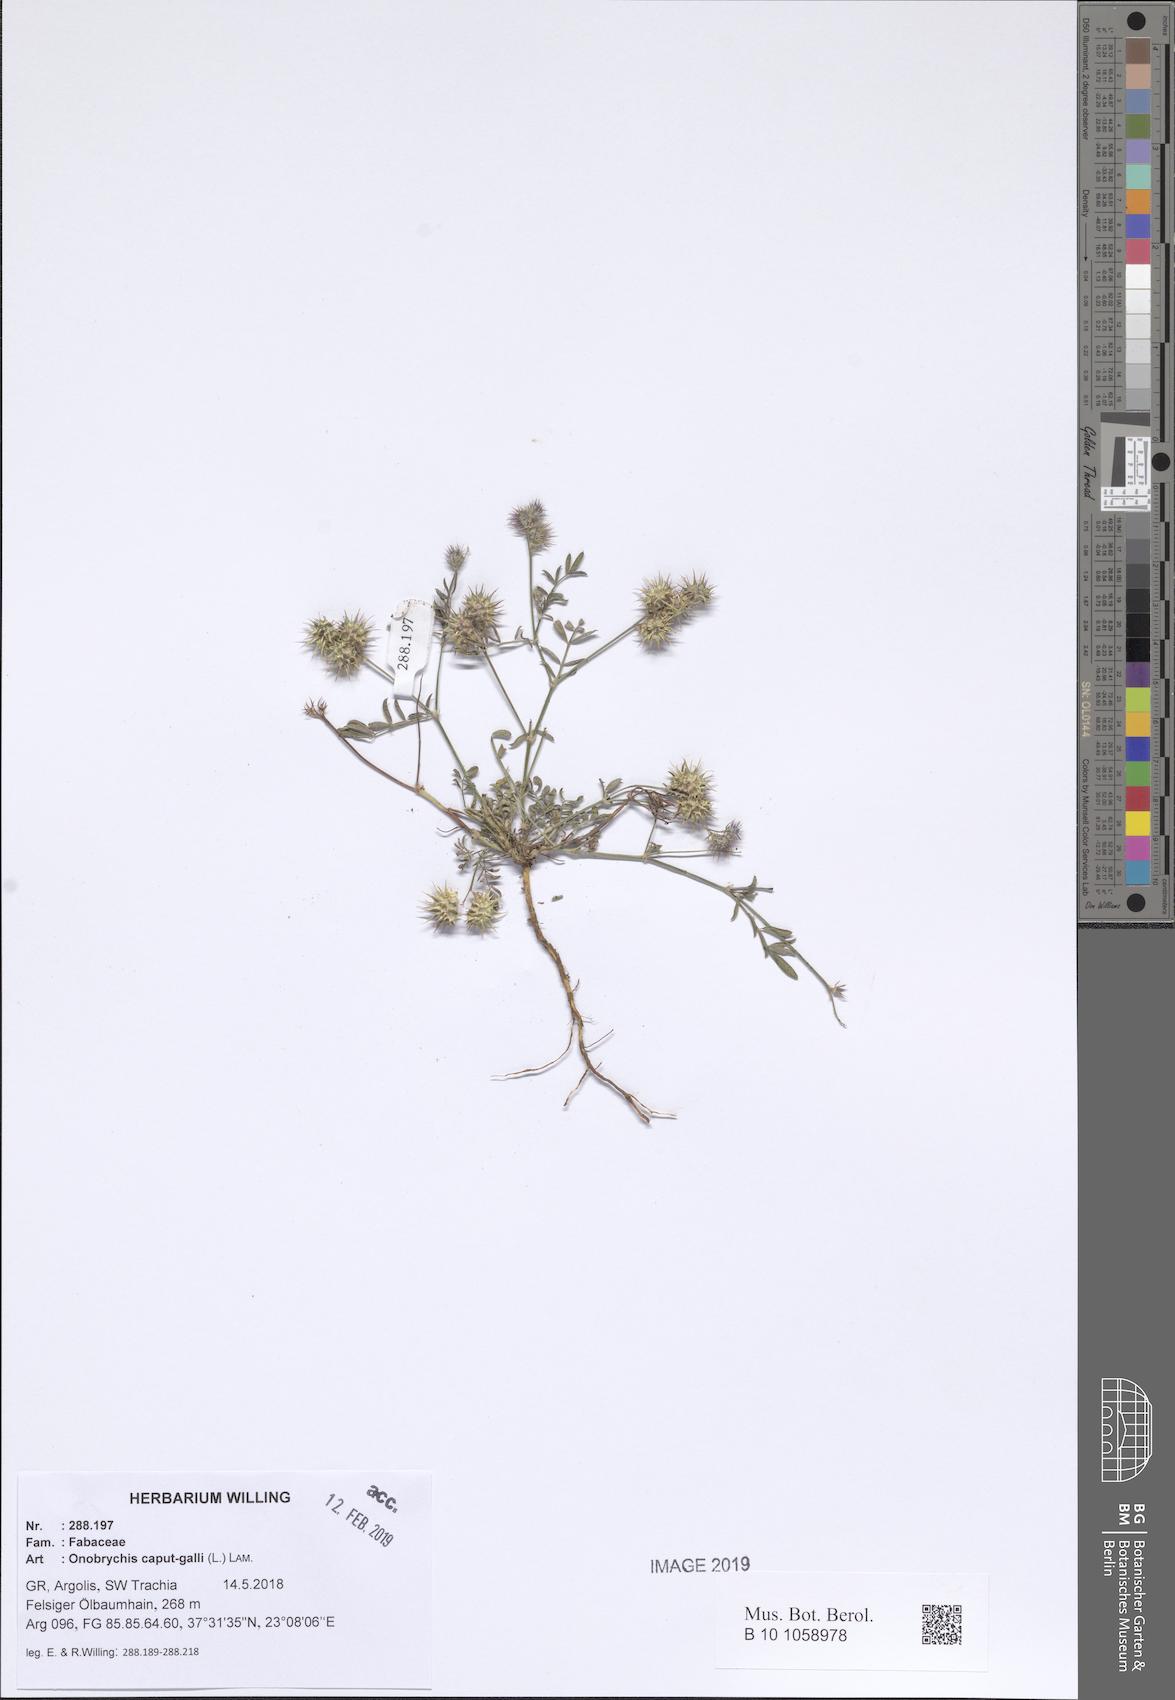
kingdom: Plantae
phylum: Tracheophyta
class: Magnoliopsida
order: Fabales
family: Fabaceae
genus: Onobrychis
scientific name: Onobrychis caput-galli
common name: Cockscomb sainfoin
